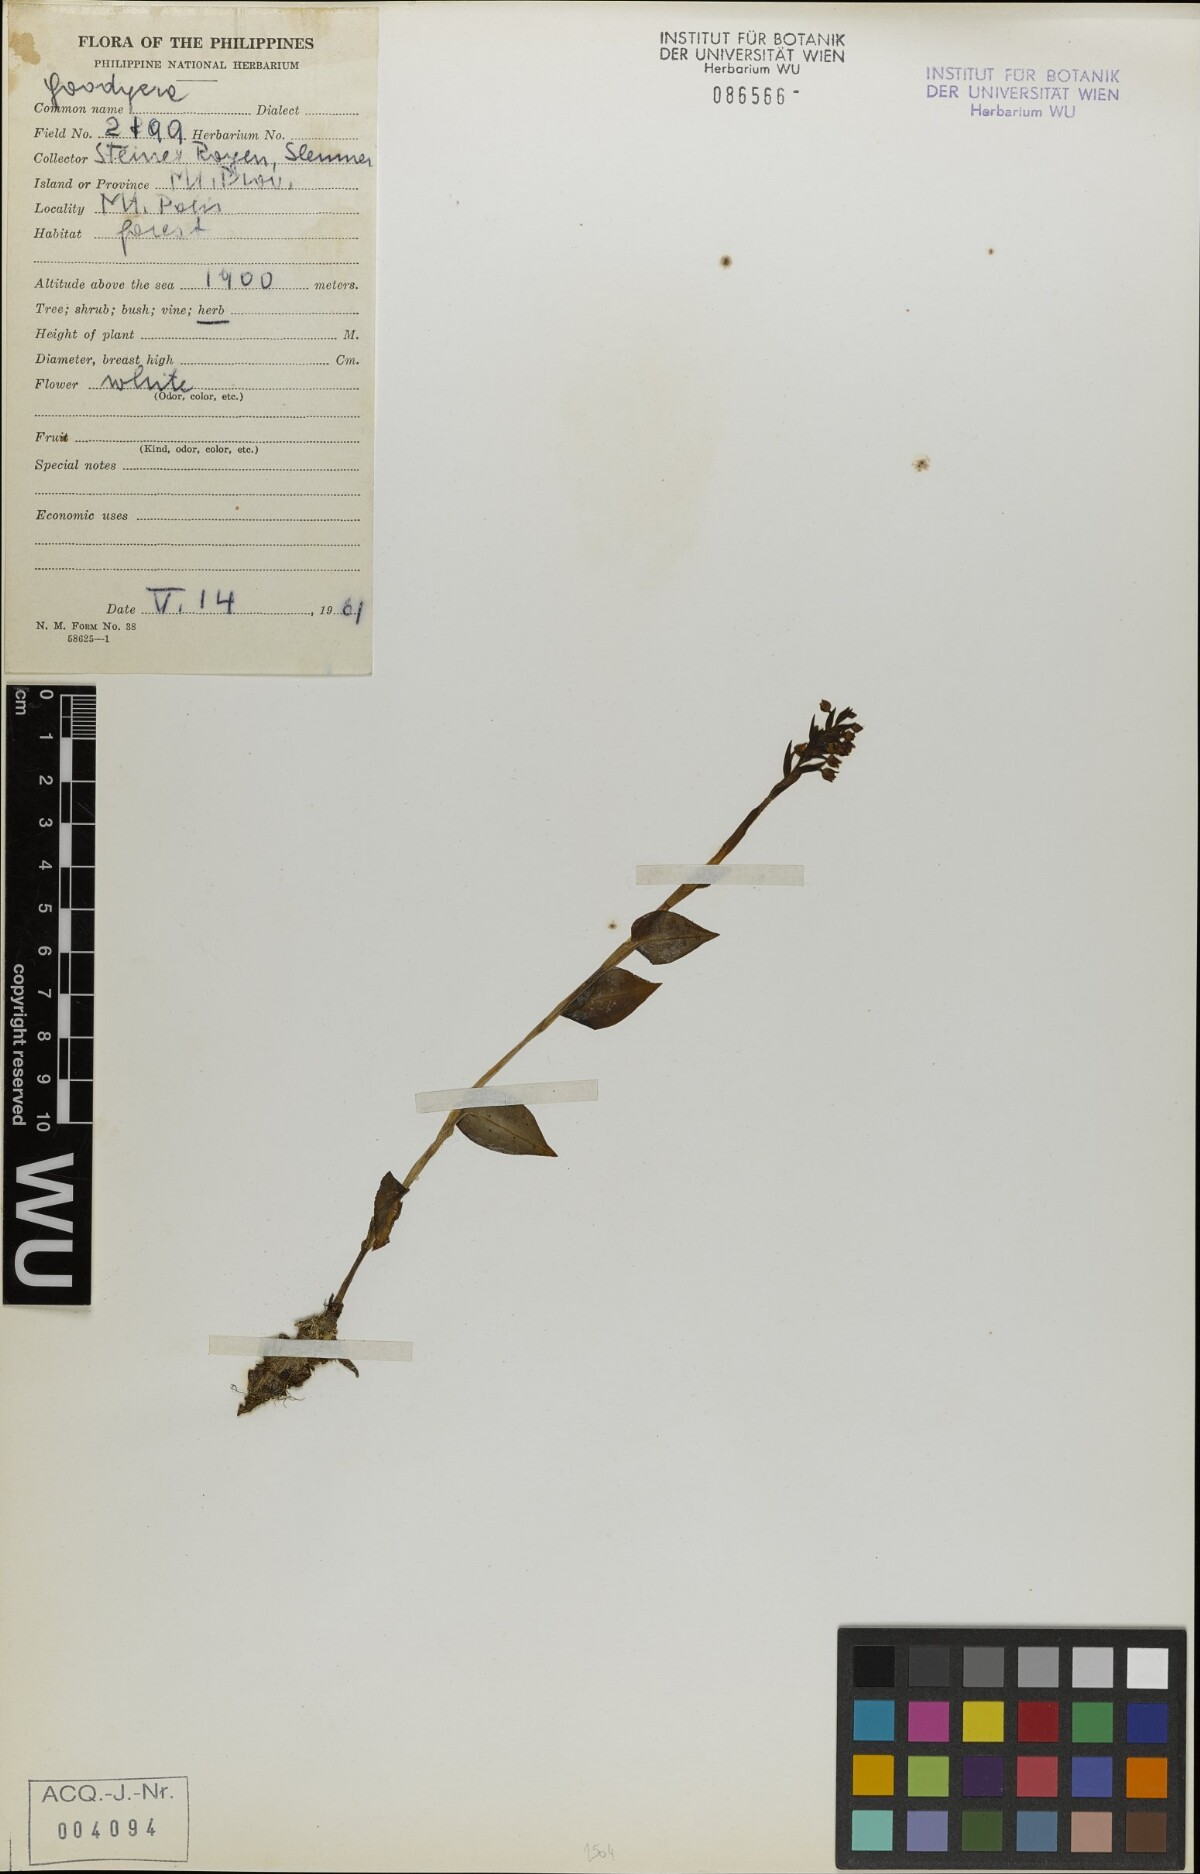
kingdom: Plantae
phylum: Tracheophyta
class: Liliopsida
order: Asparagales
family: Orchidaceae
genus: Goodyera
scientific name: Goodyera
